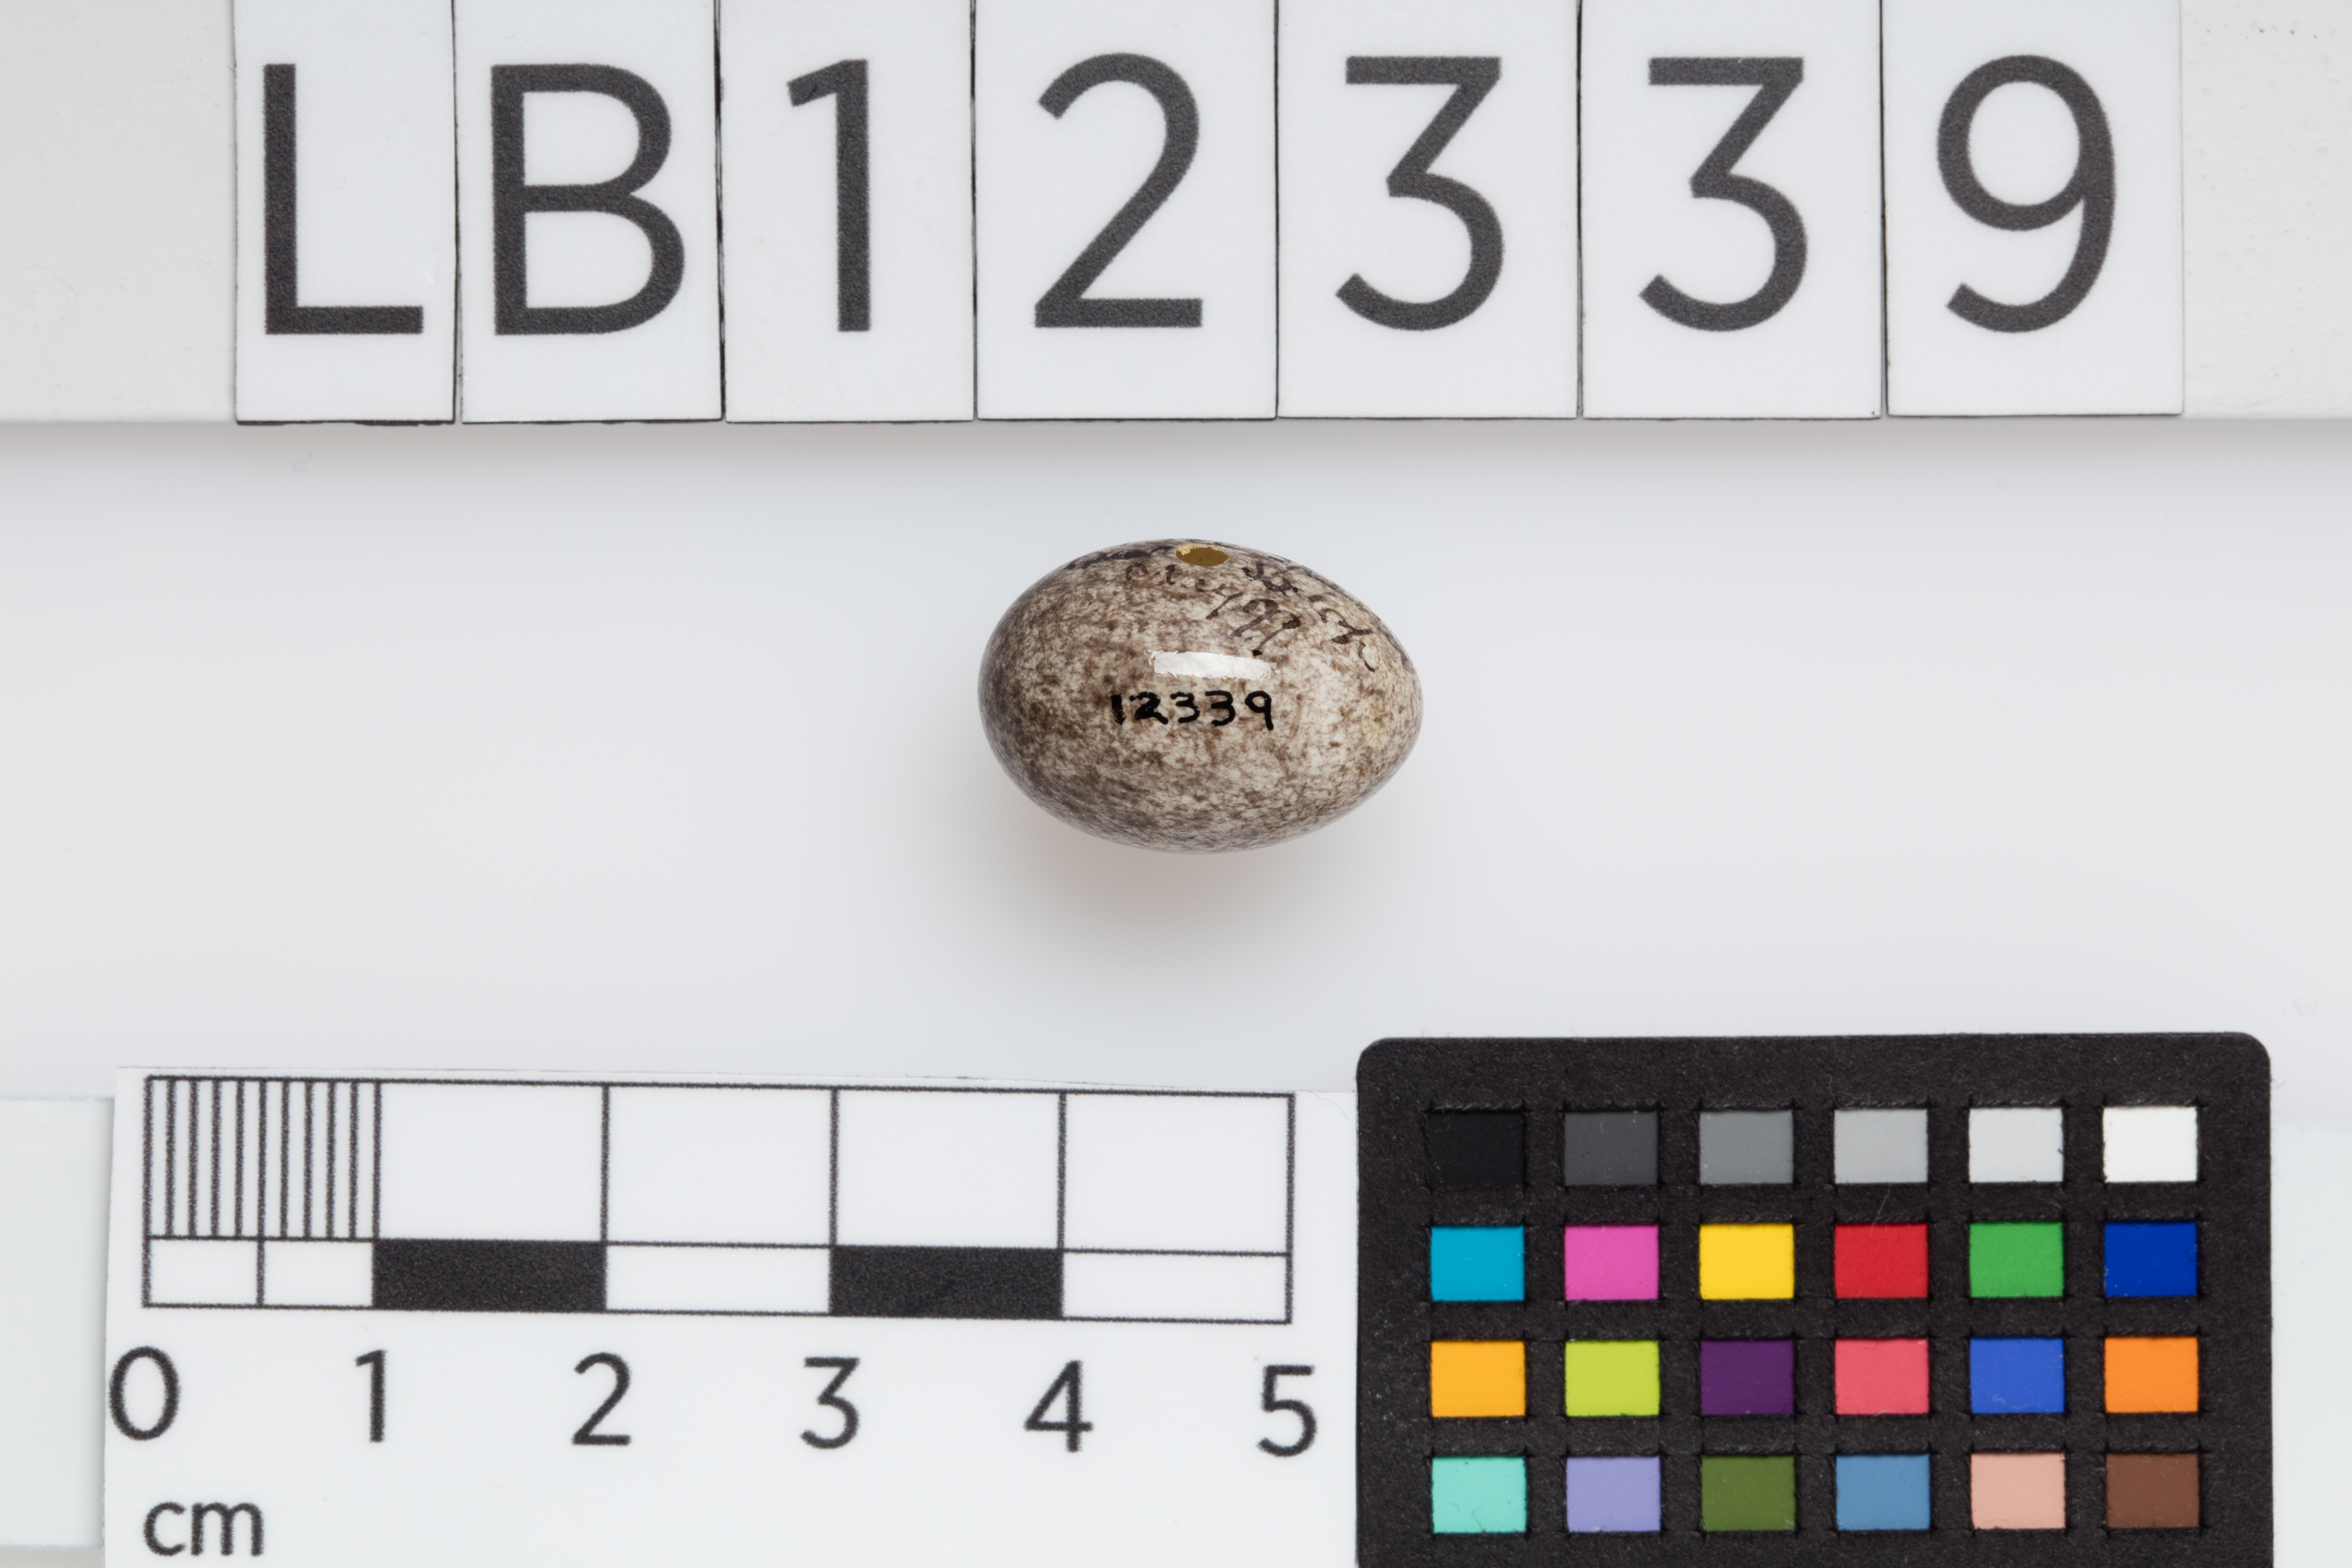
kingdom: Animalia
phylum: Chordata
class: Aves
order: Passeriformes
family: Passeridae
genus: Passer
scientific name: Passer montanus
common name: Eurasian tree sparrow
